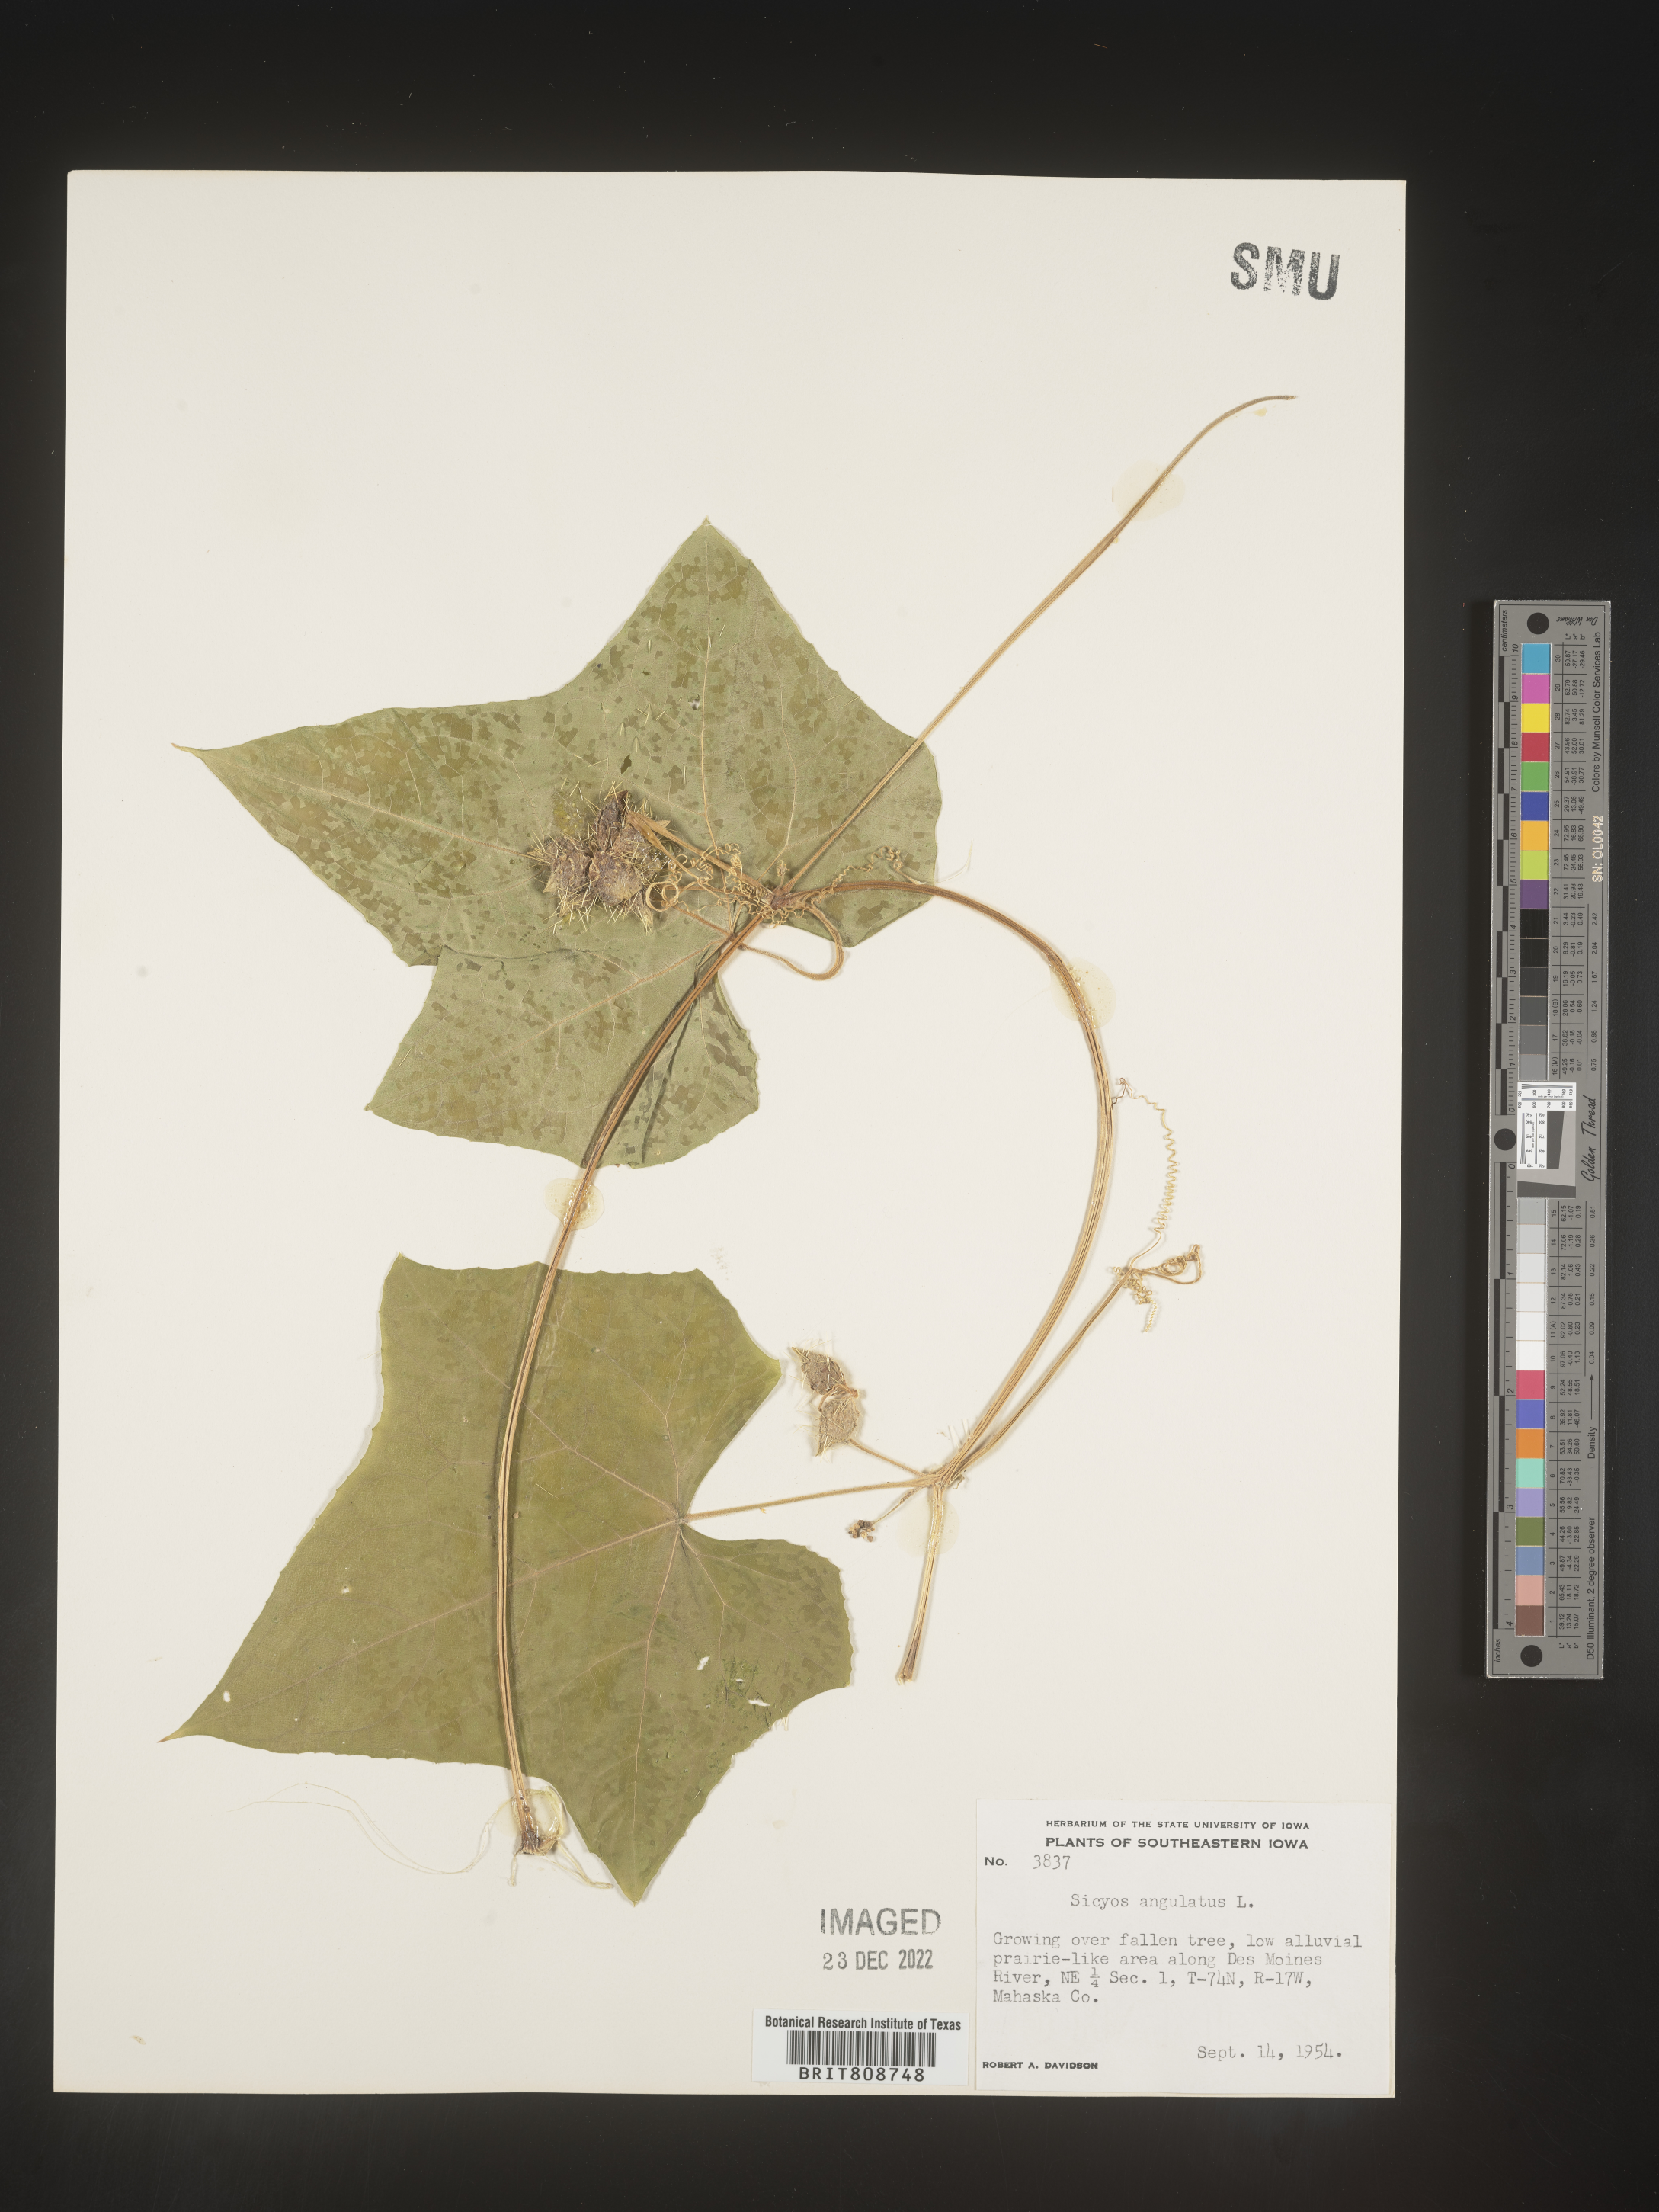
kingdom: Plantae
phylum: Tracheophyta
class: Magnoliopsida
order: Cucurbitales
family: Cucurbitaceae
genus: Sicyos
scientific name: Sicyos angulatus
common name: Angled burr cucumber
